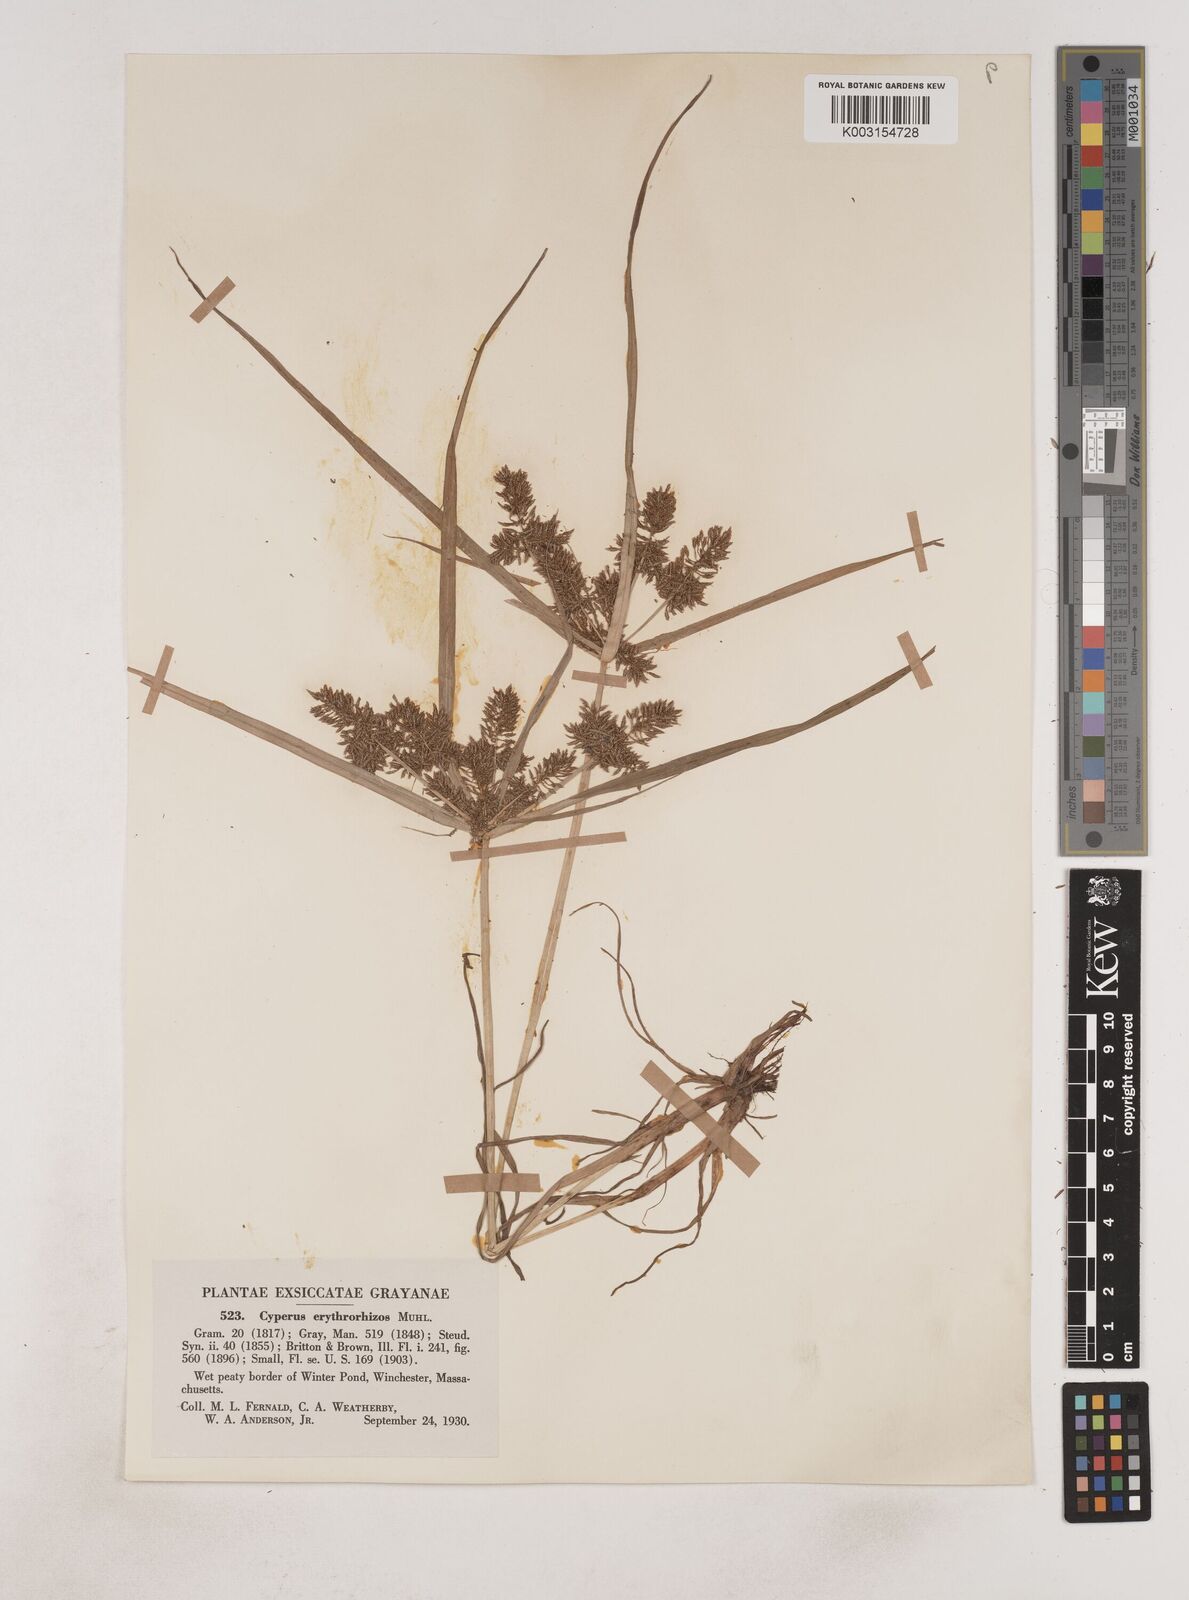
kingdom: Plantae
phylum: Tracheophyta
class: Liliopsida
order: Poales
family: Cyperaceae
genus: Cyperus
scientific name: Cyperus erythrorhizos
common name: Red-root flat sedge
